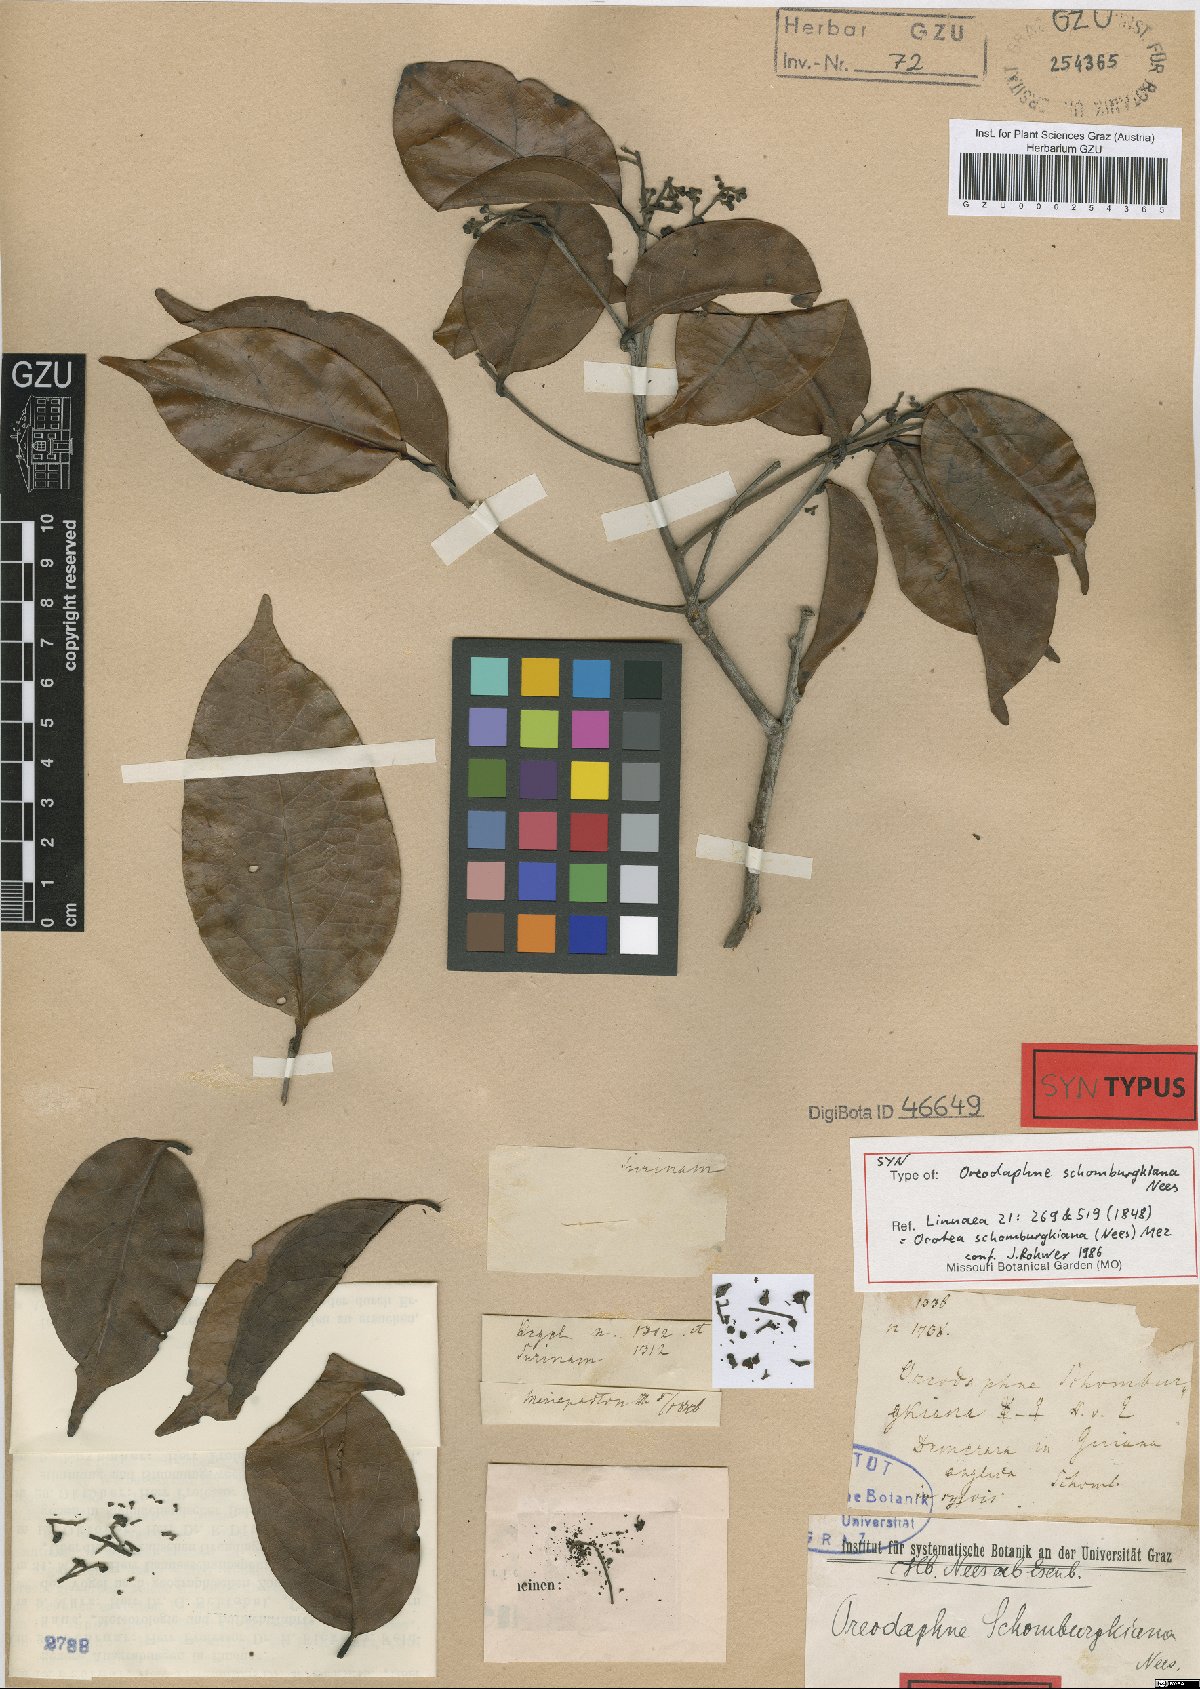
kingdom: Plantae
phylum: Tracheophyta
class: Magnoliopsida
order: Laurales
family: Lauraceae
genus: Ocotea
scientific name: Ocotea schomburgkiana
